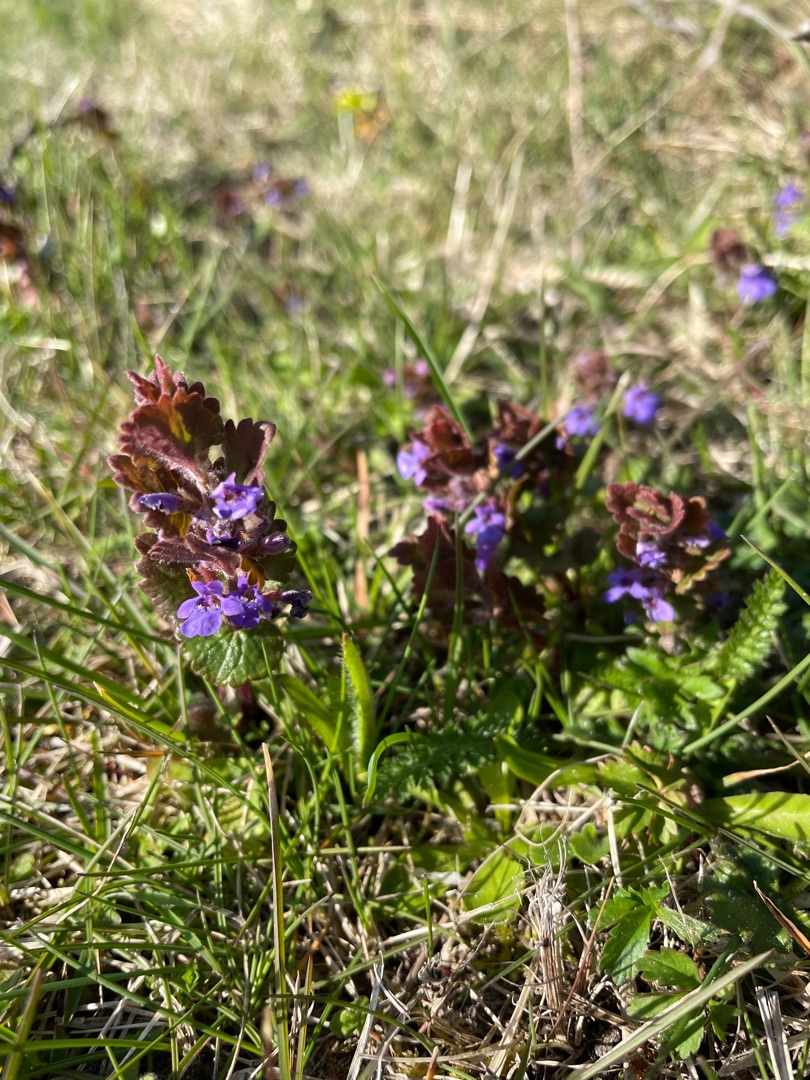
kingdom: Plantae
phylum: Tracheophyta
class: Magnoliopsida
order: Lamiales
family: Lamiaceae
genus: Glechoma
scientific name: Glechoma hederacea
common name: Korsknap
